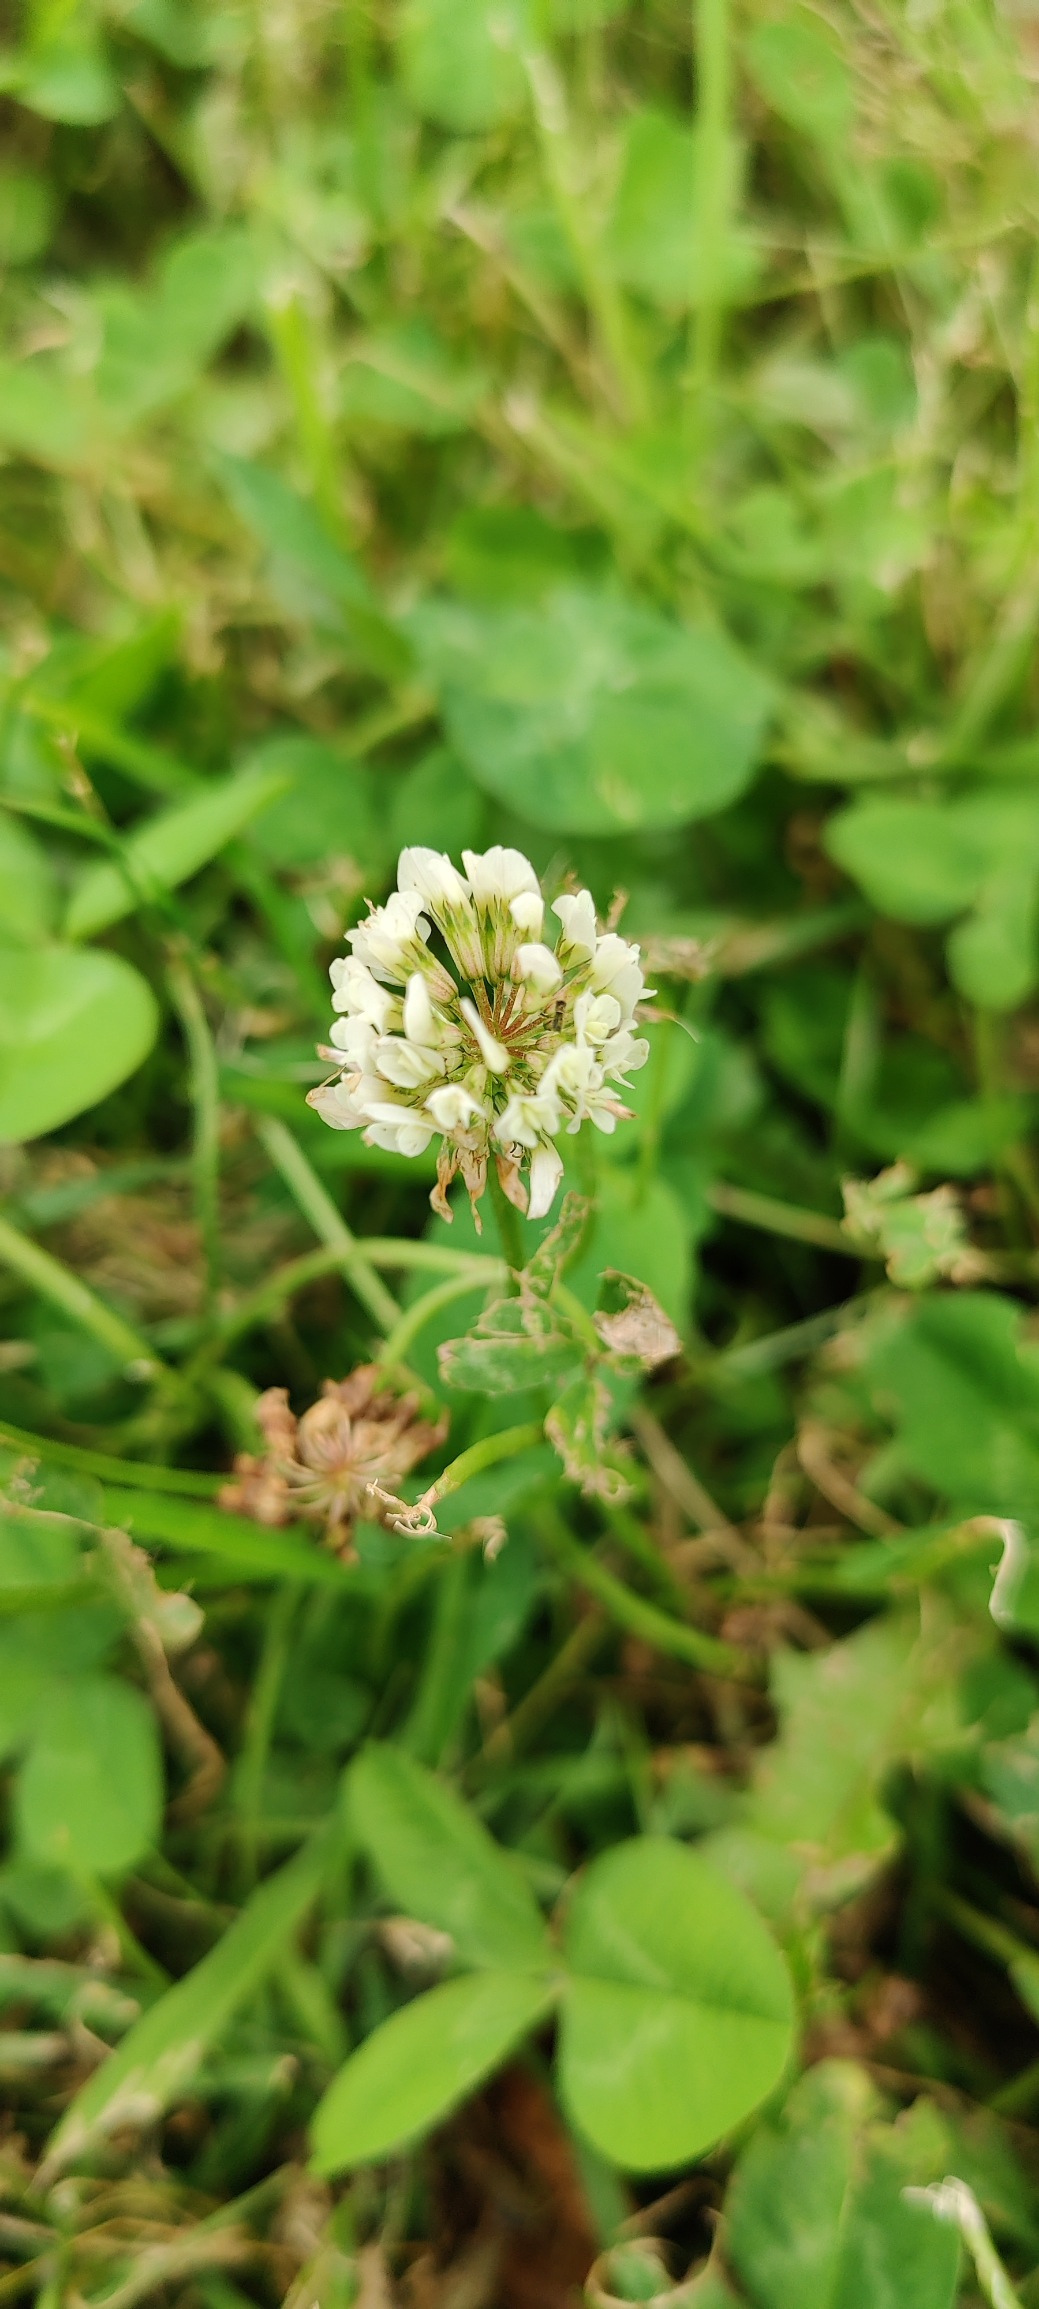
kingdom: Plantae
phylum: Tracheophyta
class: Magnoliopsida
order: Fabales
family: Fabaceae
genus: Trifolium
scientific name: Trifolium repens
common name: Hvid-kløver
